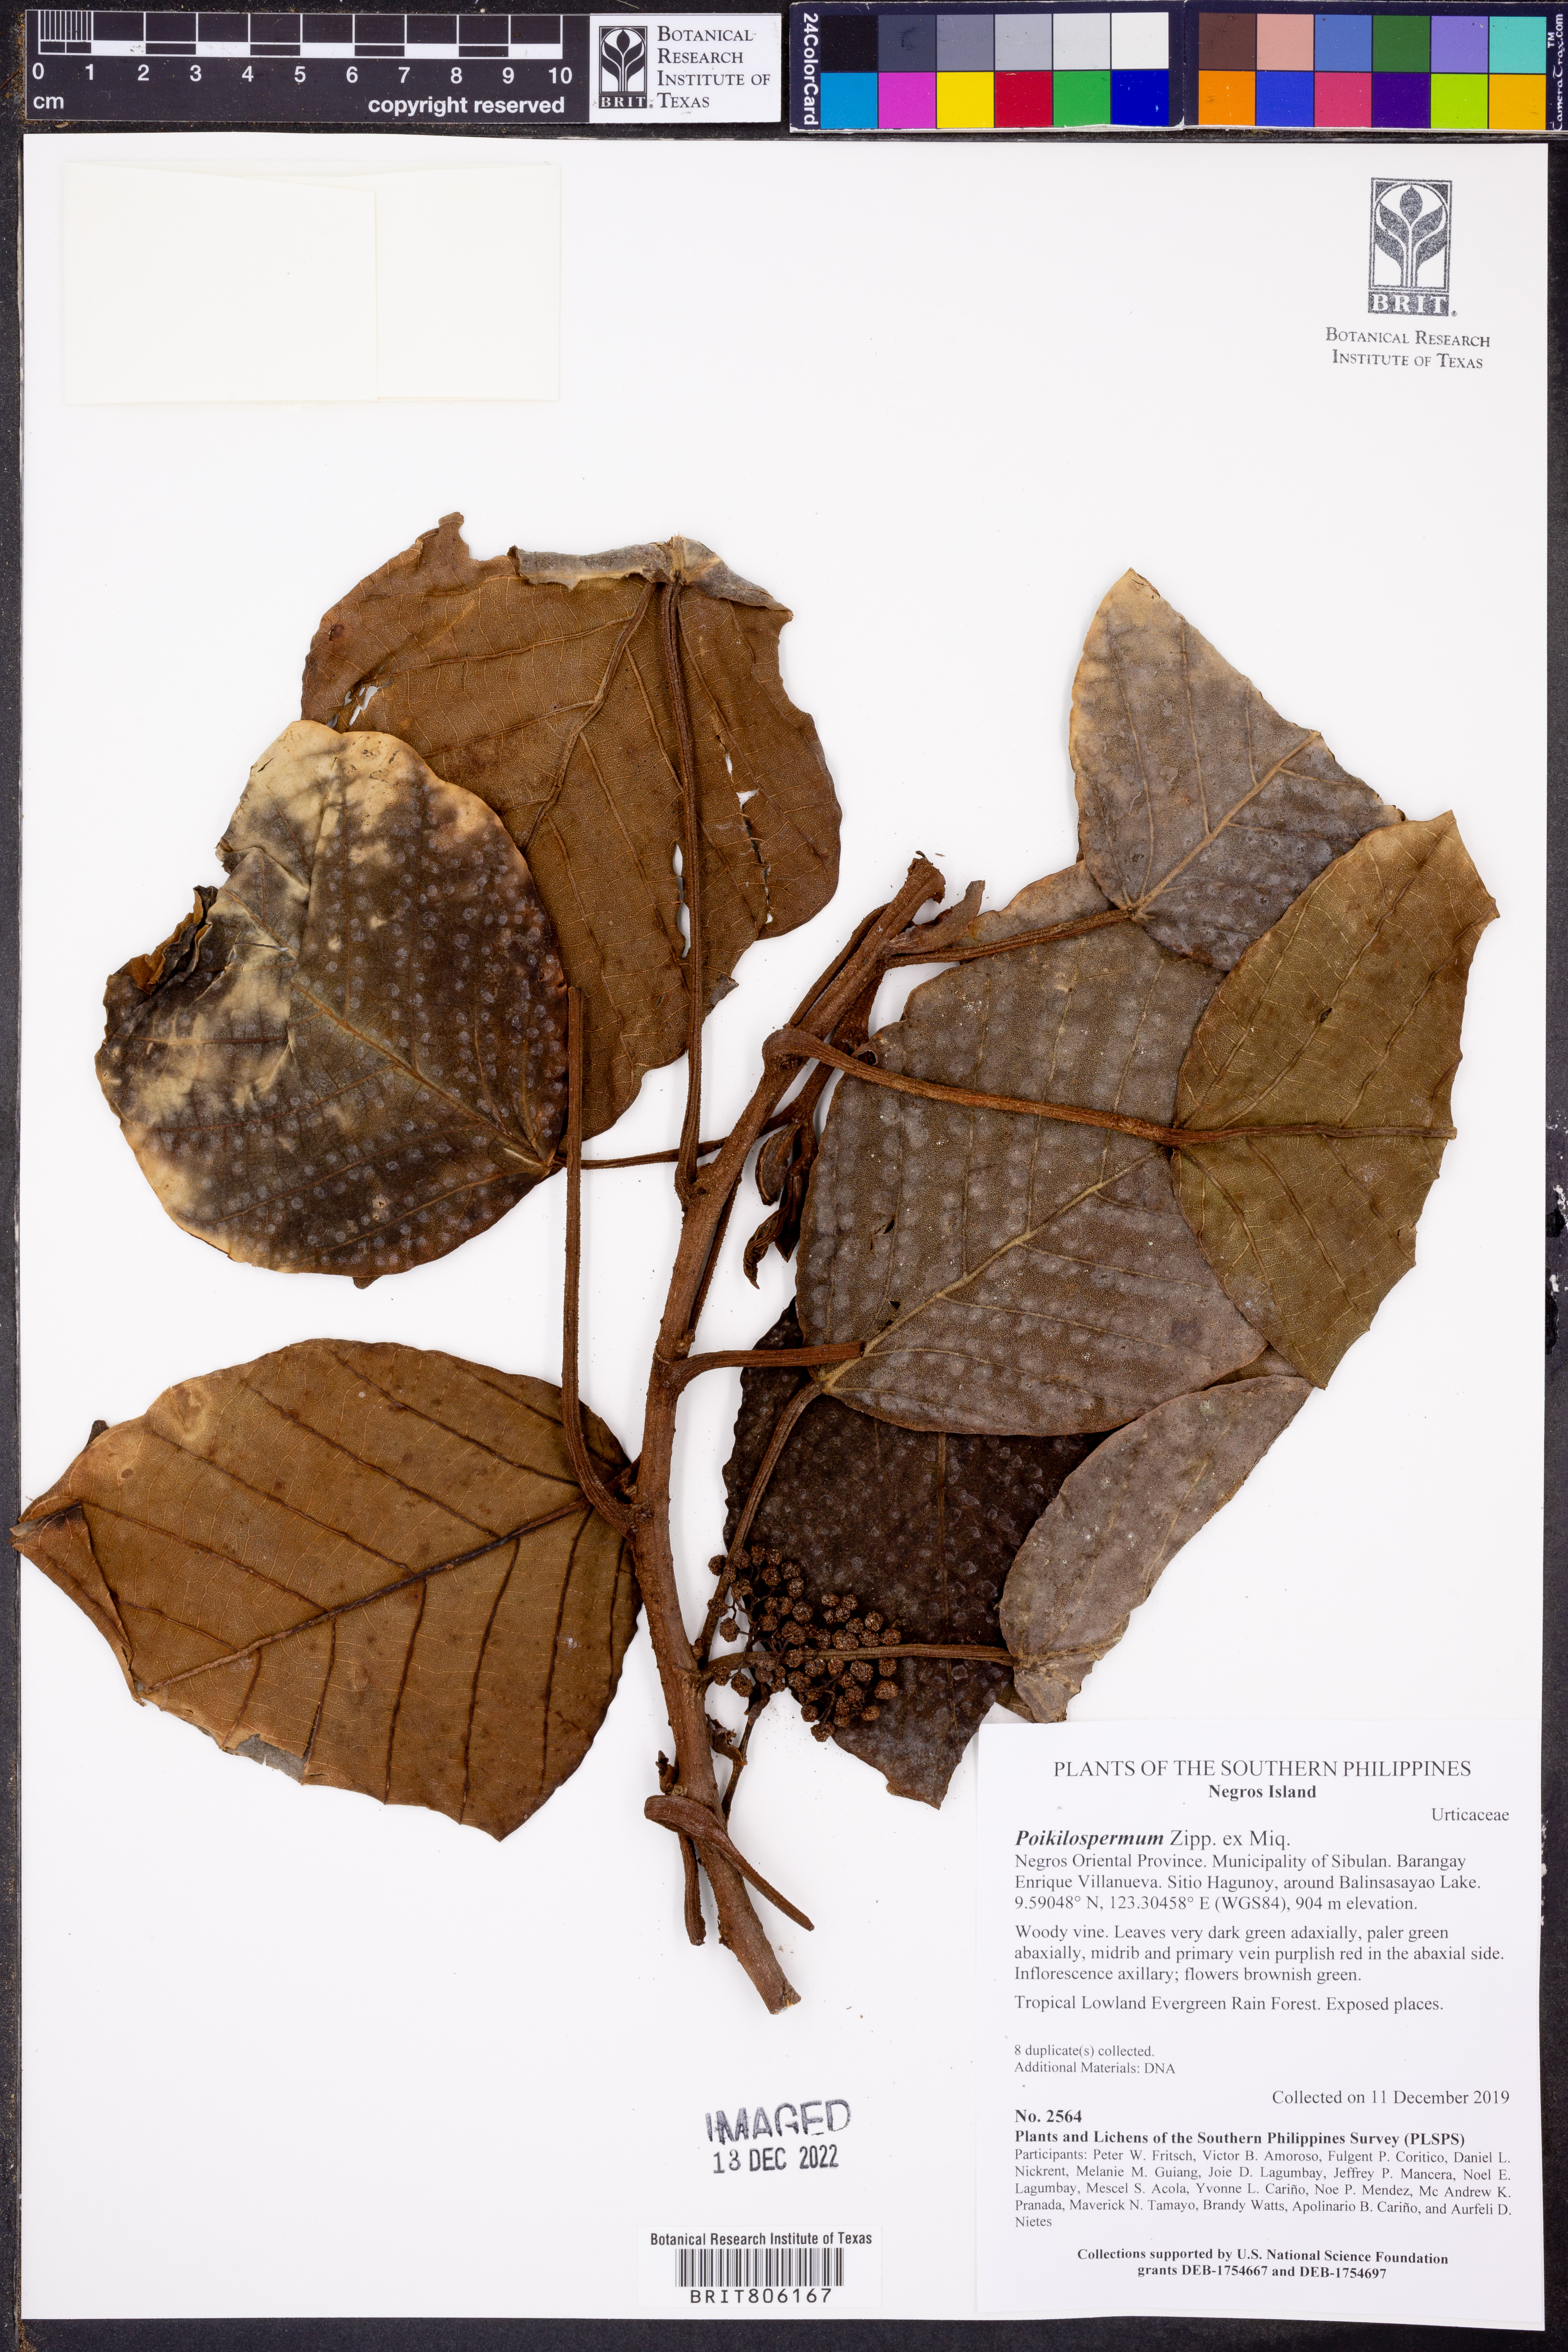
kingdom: Plantae
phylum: Tracheophyta
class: Magnoliopsida
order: Rosales
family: Urticaceae
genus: Poikilospermum
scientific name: Poikilospermum
